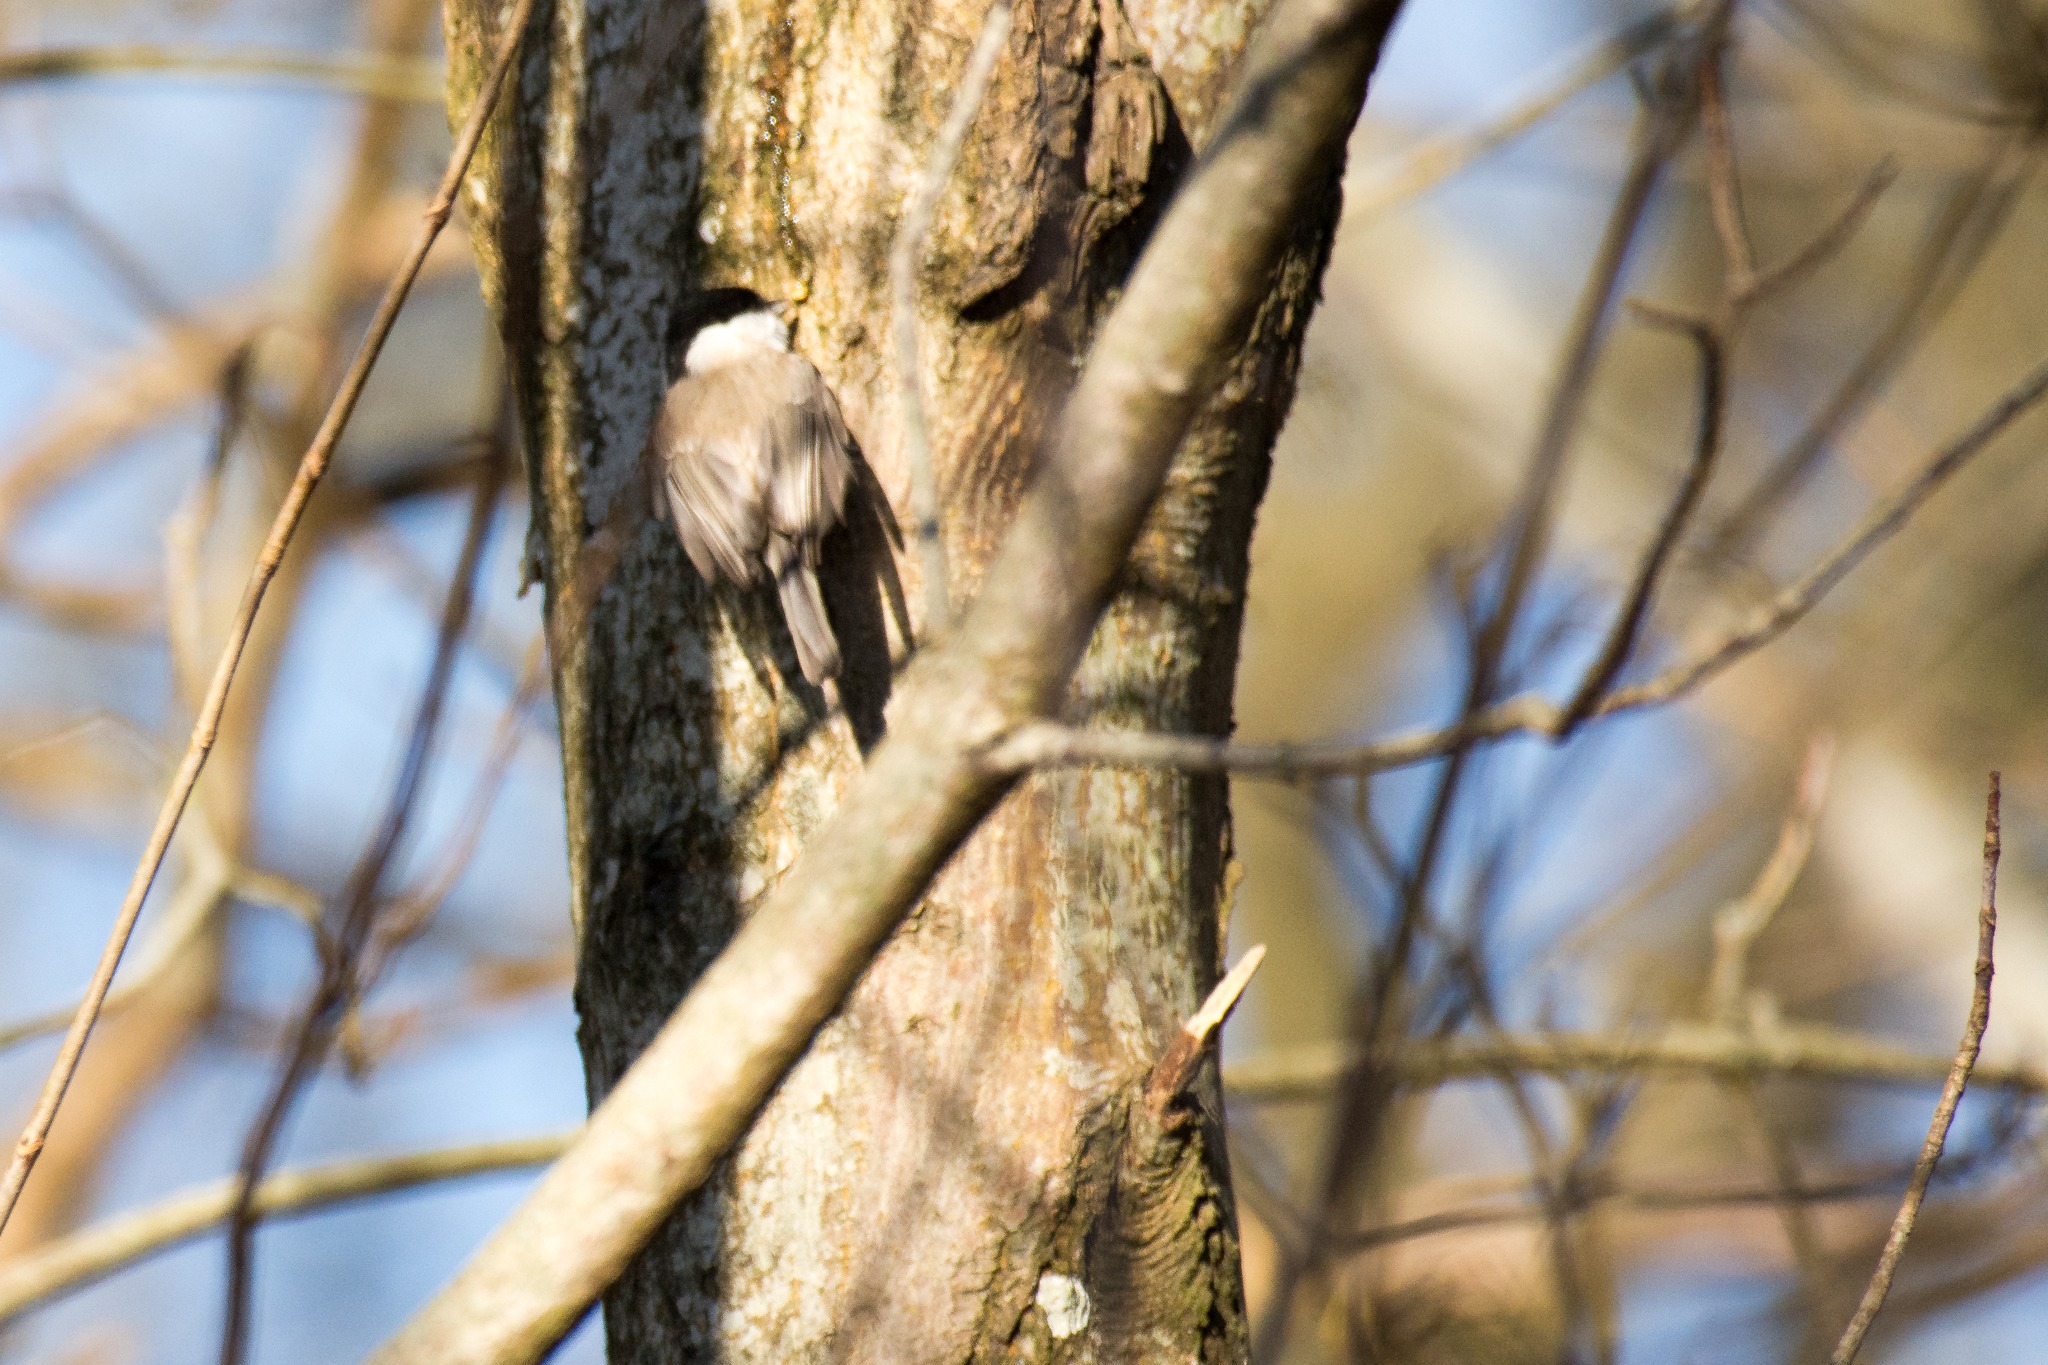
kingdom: Animalia
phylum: Chordata
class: Aves
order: Passeriformes
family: Paridae
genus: Poecile
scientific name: Poecile palustris
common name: Sumpmejse
